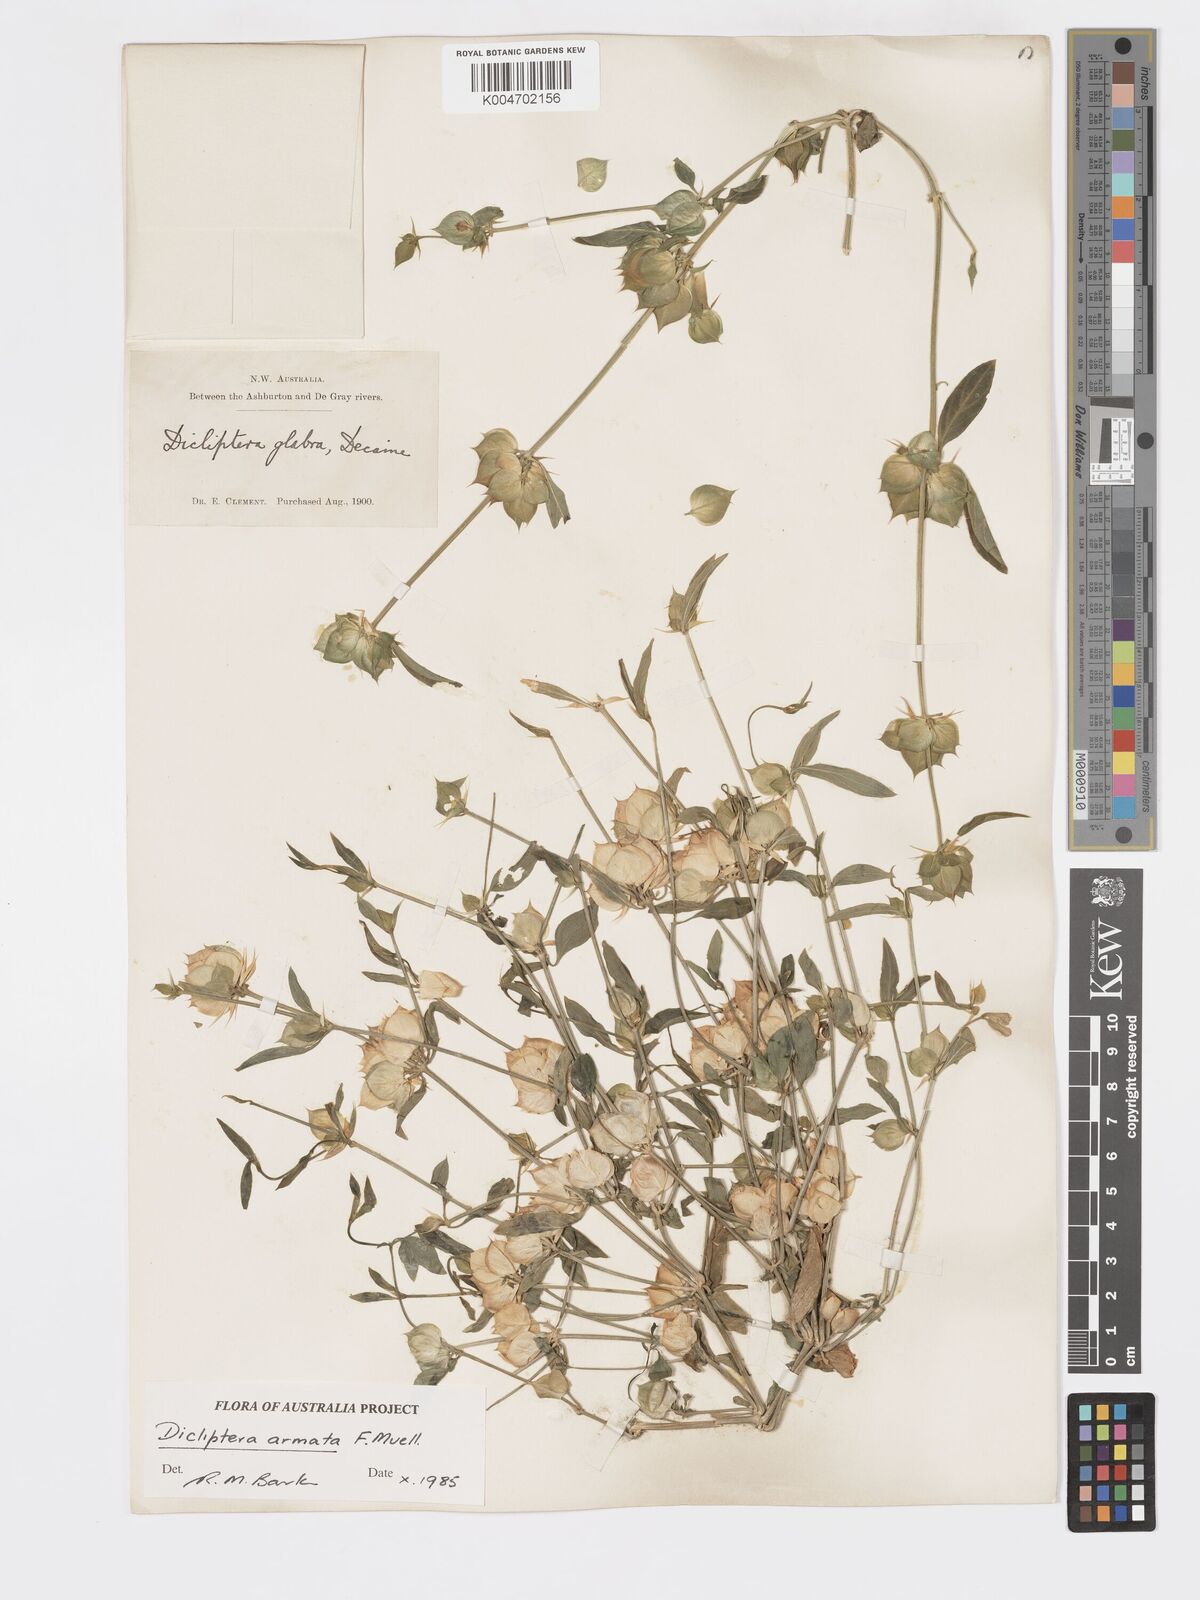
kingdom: Plantae
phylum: Tracheophyta
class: Magnoliopsida
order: Lamiales
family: Acanthaceae
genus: Dicliptera
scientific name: Dicliptera armata
